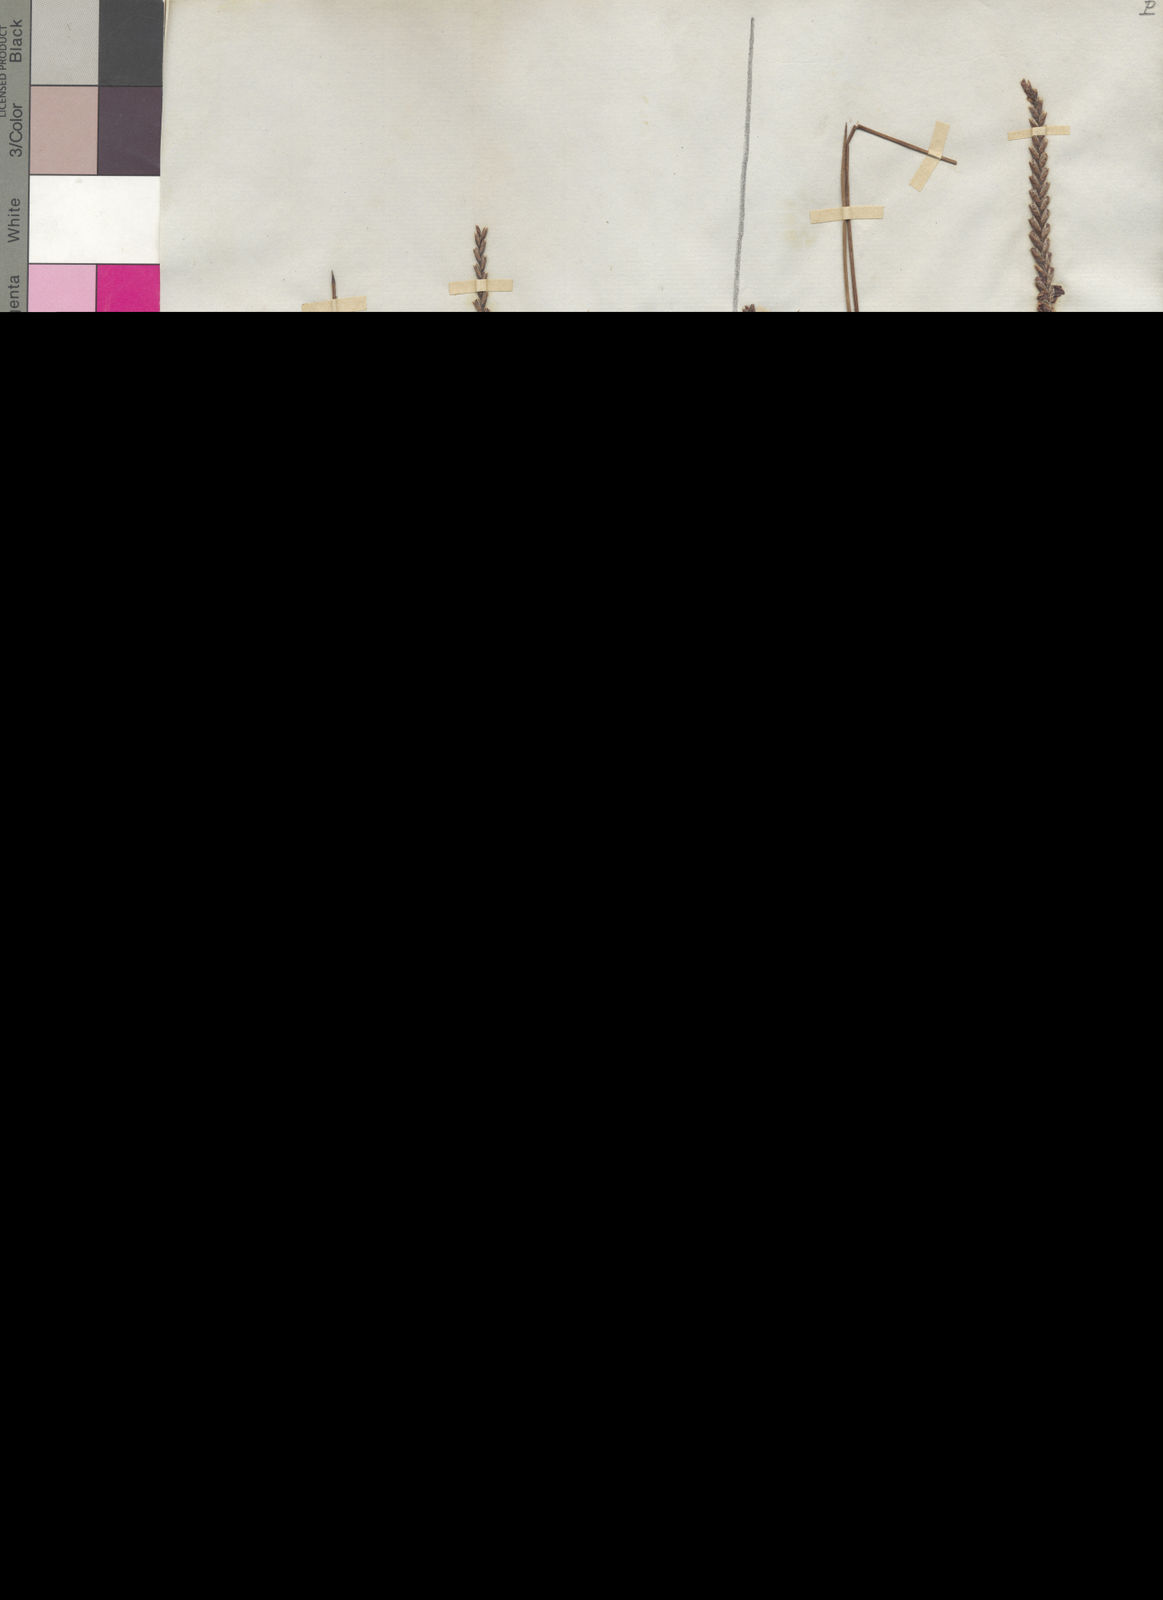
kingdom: Plantae
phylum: Tracheophyta
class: Liliopsida
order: Asparagales
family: Iridaceae
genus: Micranthus
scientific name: Micranthus plantagineus
